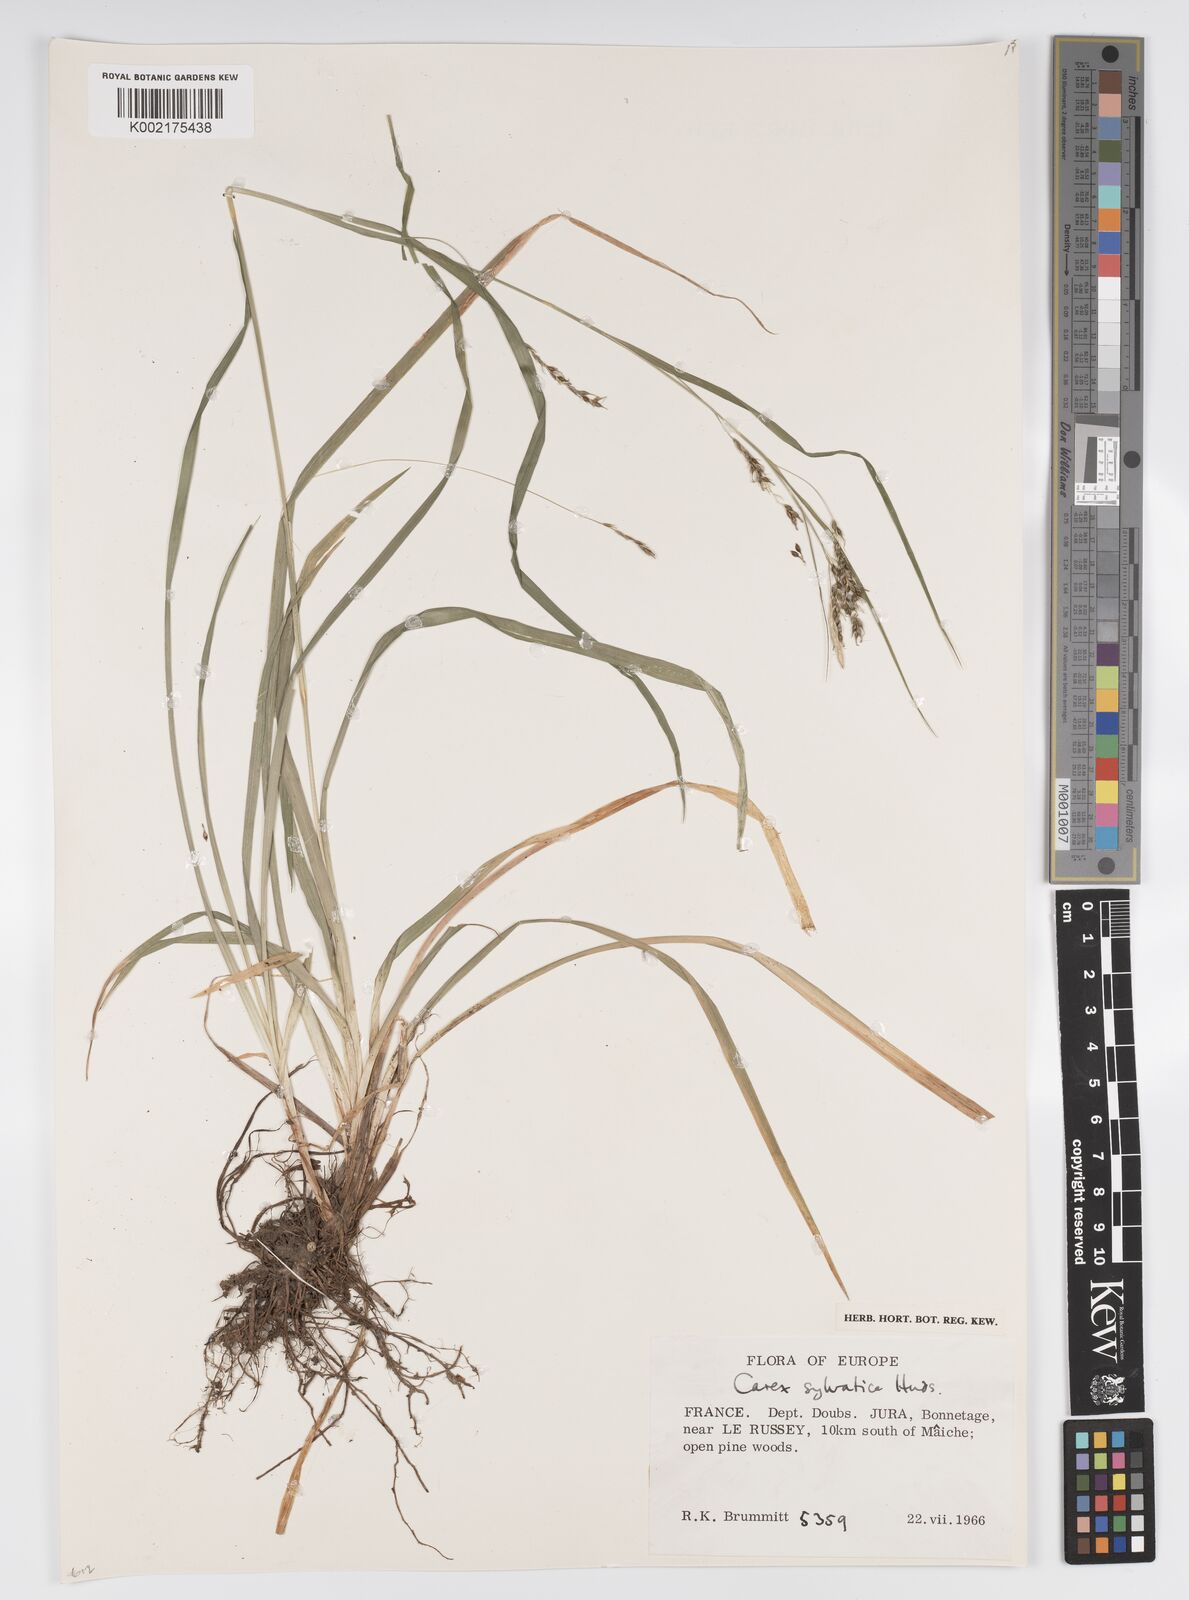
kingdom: Plantae
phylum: Tracheophyta
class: Liliopsida
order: Poales
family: Cyperaceae
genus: Carex
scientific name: Carex sylvatica
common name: Wood-sedge
